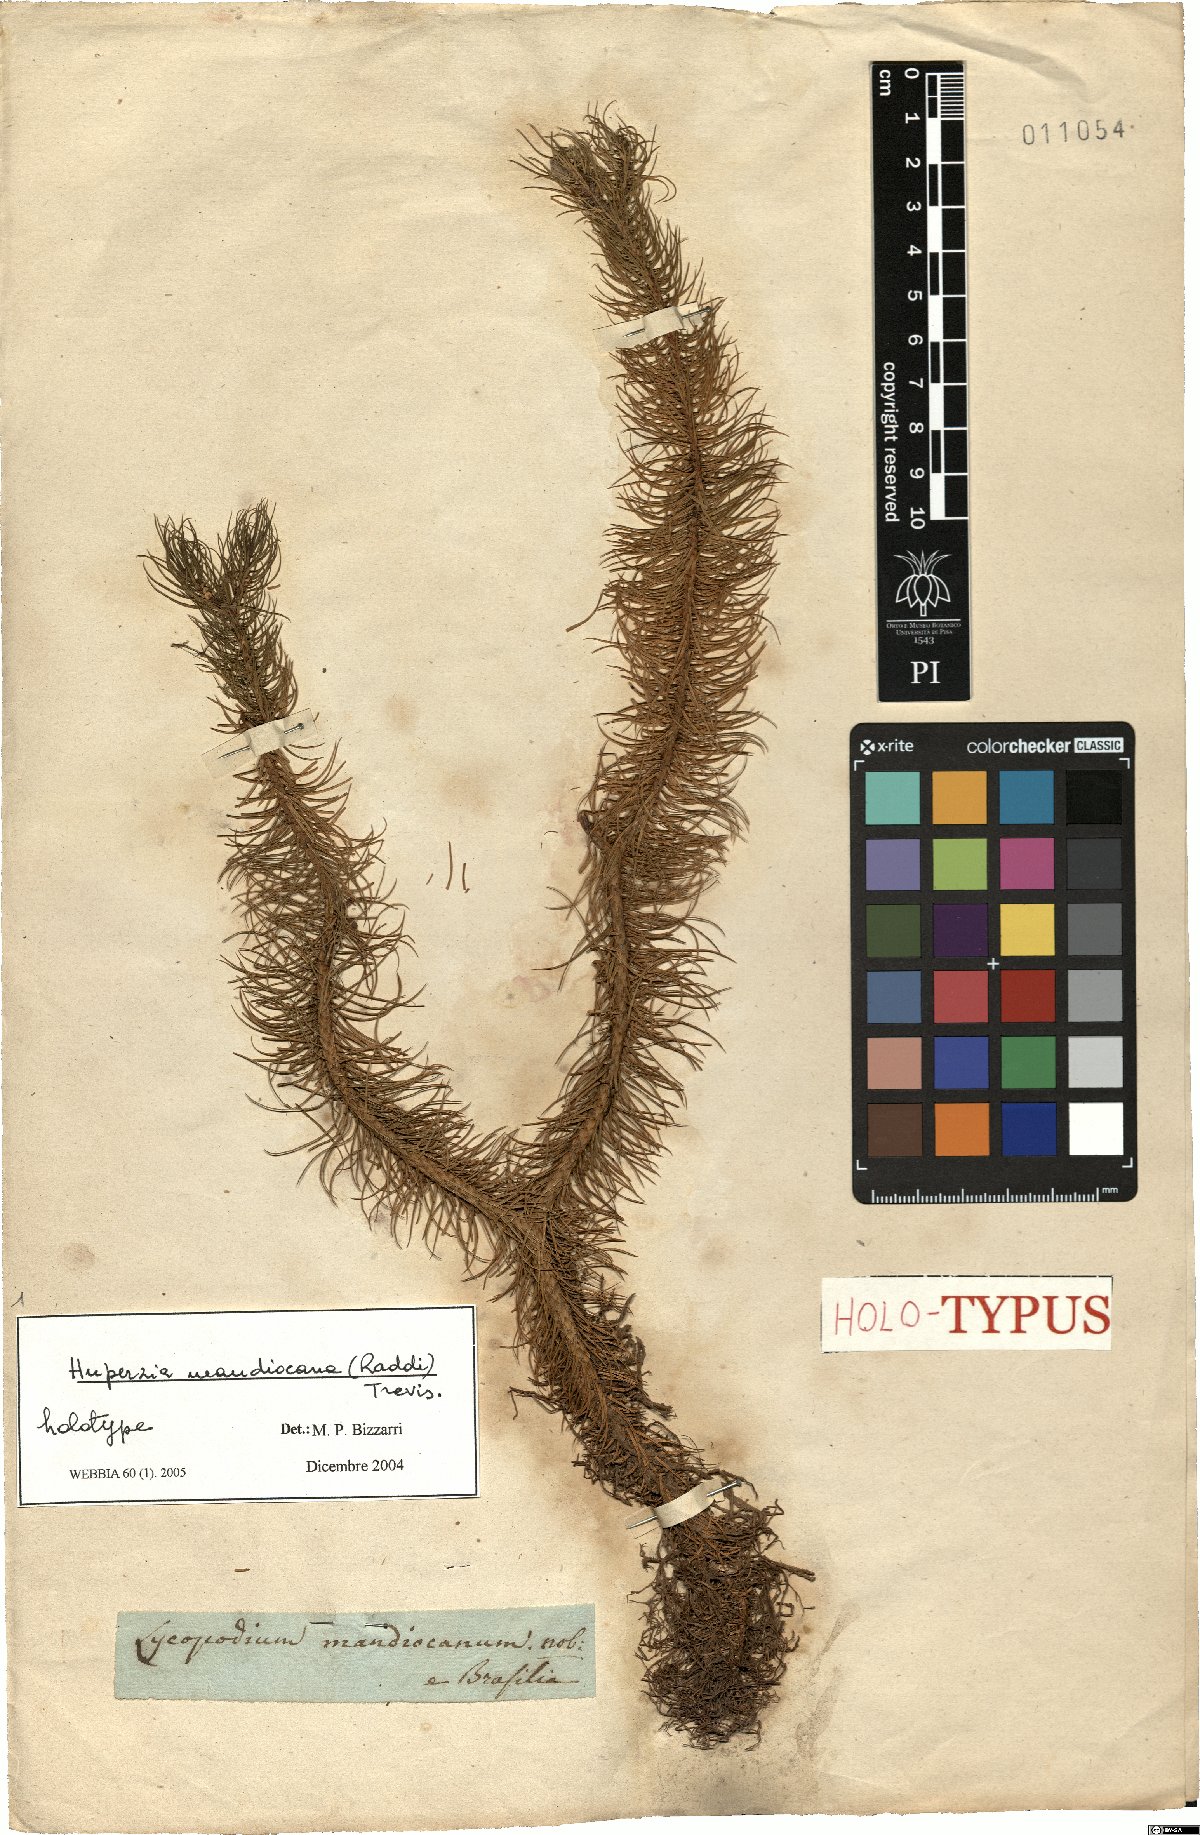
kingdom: Plantae
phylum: Tracheophyta
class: Lycopodiopsida
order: Lycopodiales
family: Lycopodiaceae
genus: Phlegmariurus
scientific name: Phlegmariurus mandiocanus
